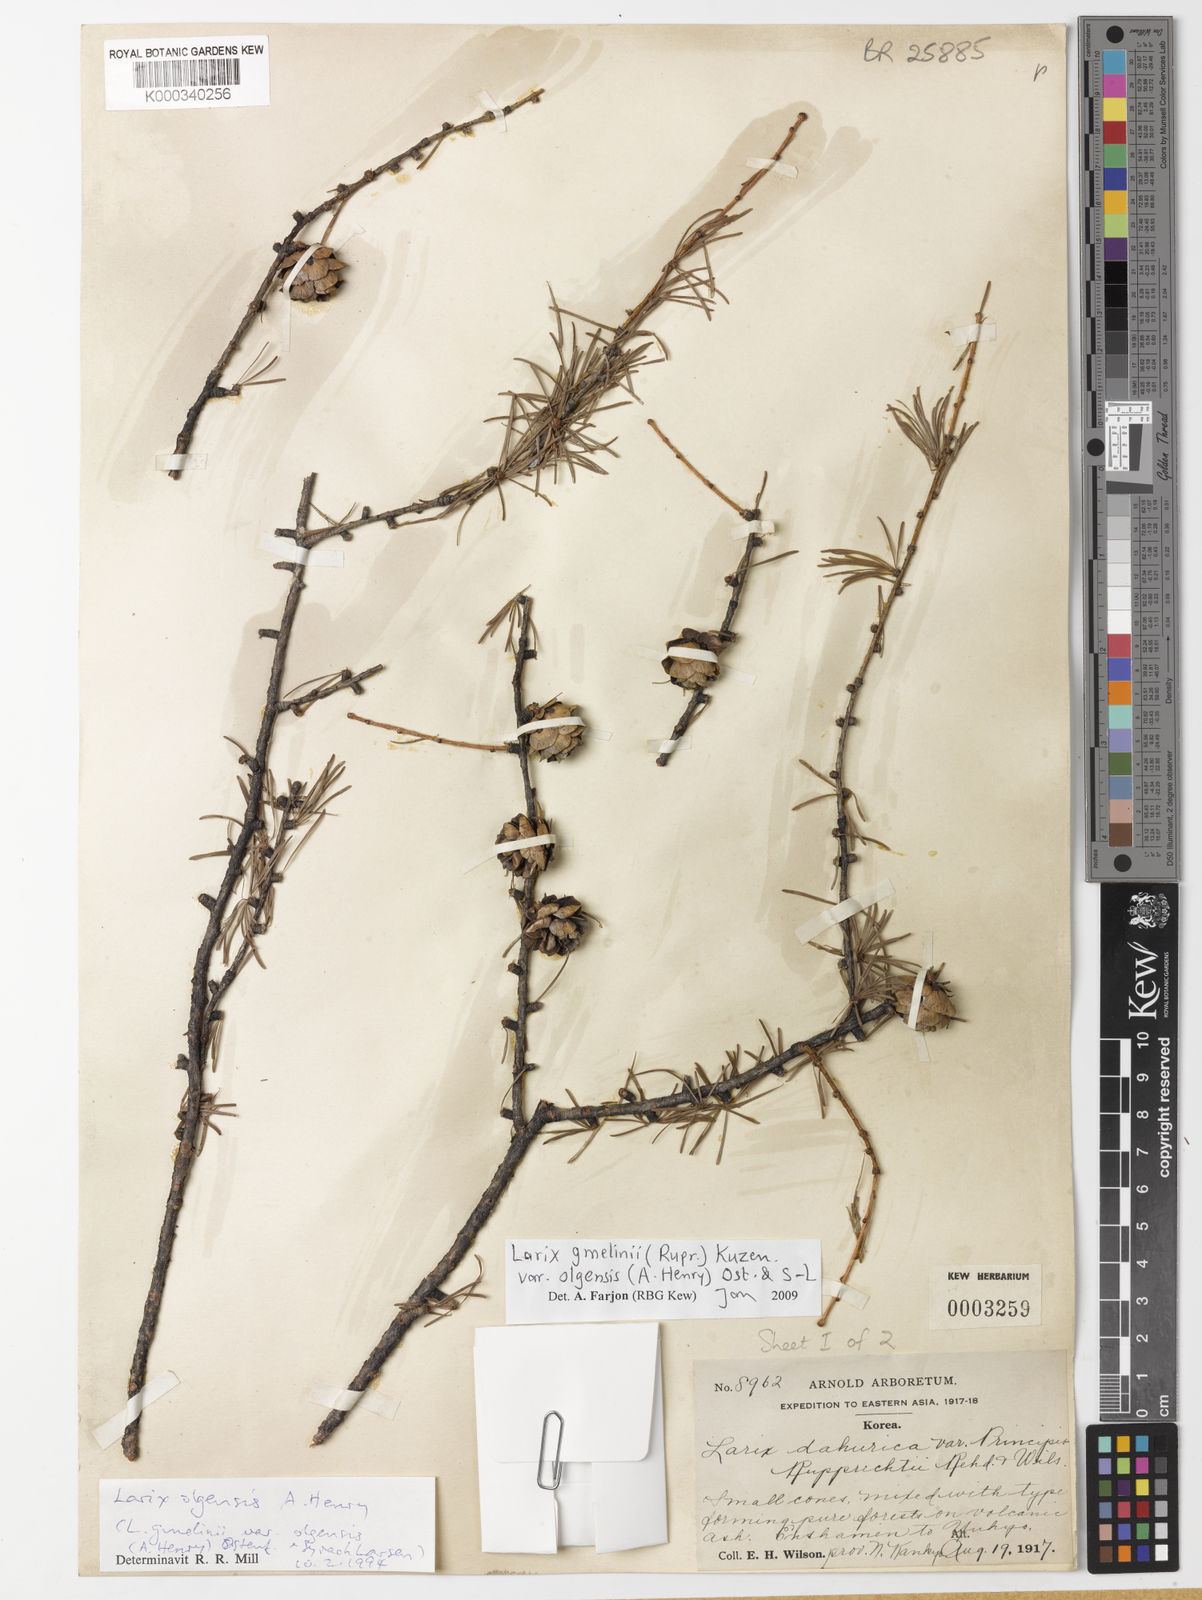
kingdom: Plantae
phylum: Tracheophyta
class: Pinopsida
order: Pinales
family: Pinaceae
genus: Larix
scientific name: Larix gmelinii
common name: Dahurian larch
